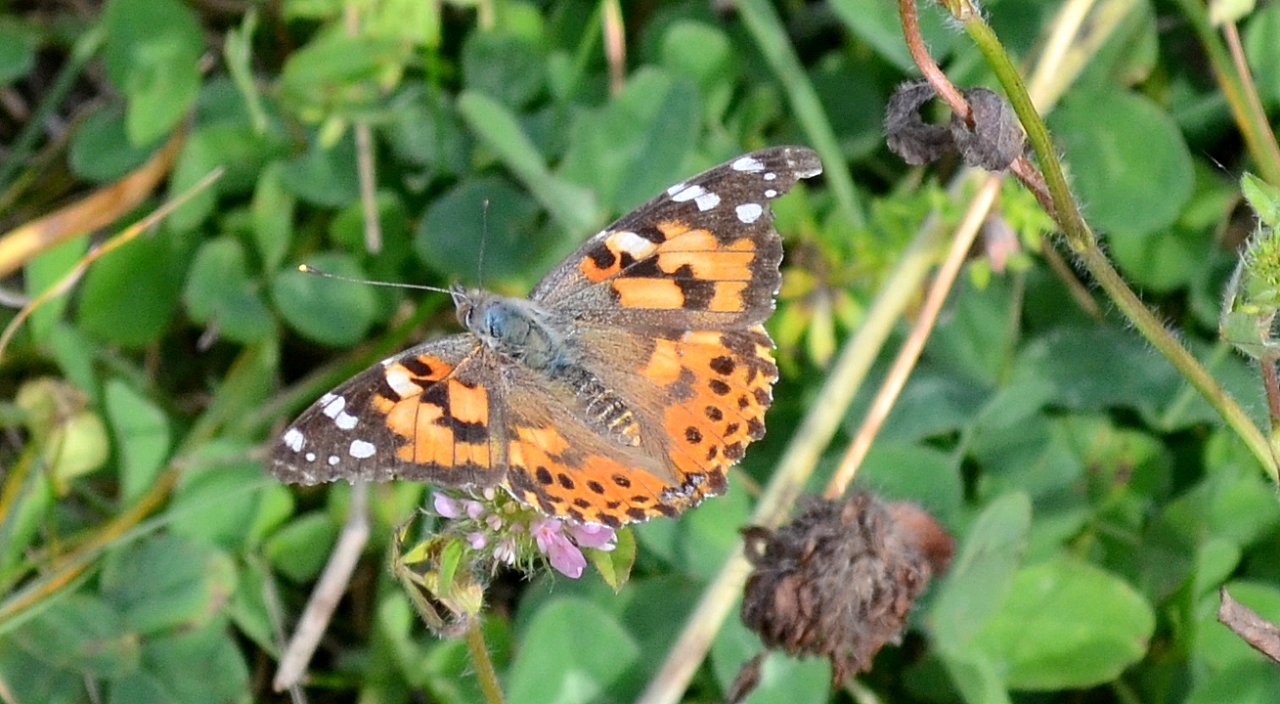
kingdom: Animalia
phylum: Arthropoda
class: Insecta
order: Lepidoptera
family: Nymphalidae
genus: Vanessa
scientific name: Vanessa cardui
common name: Painted Lady
